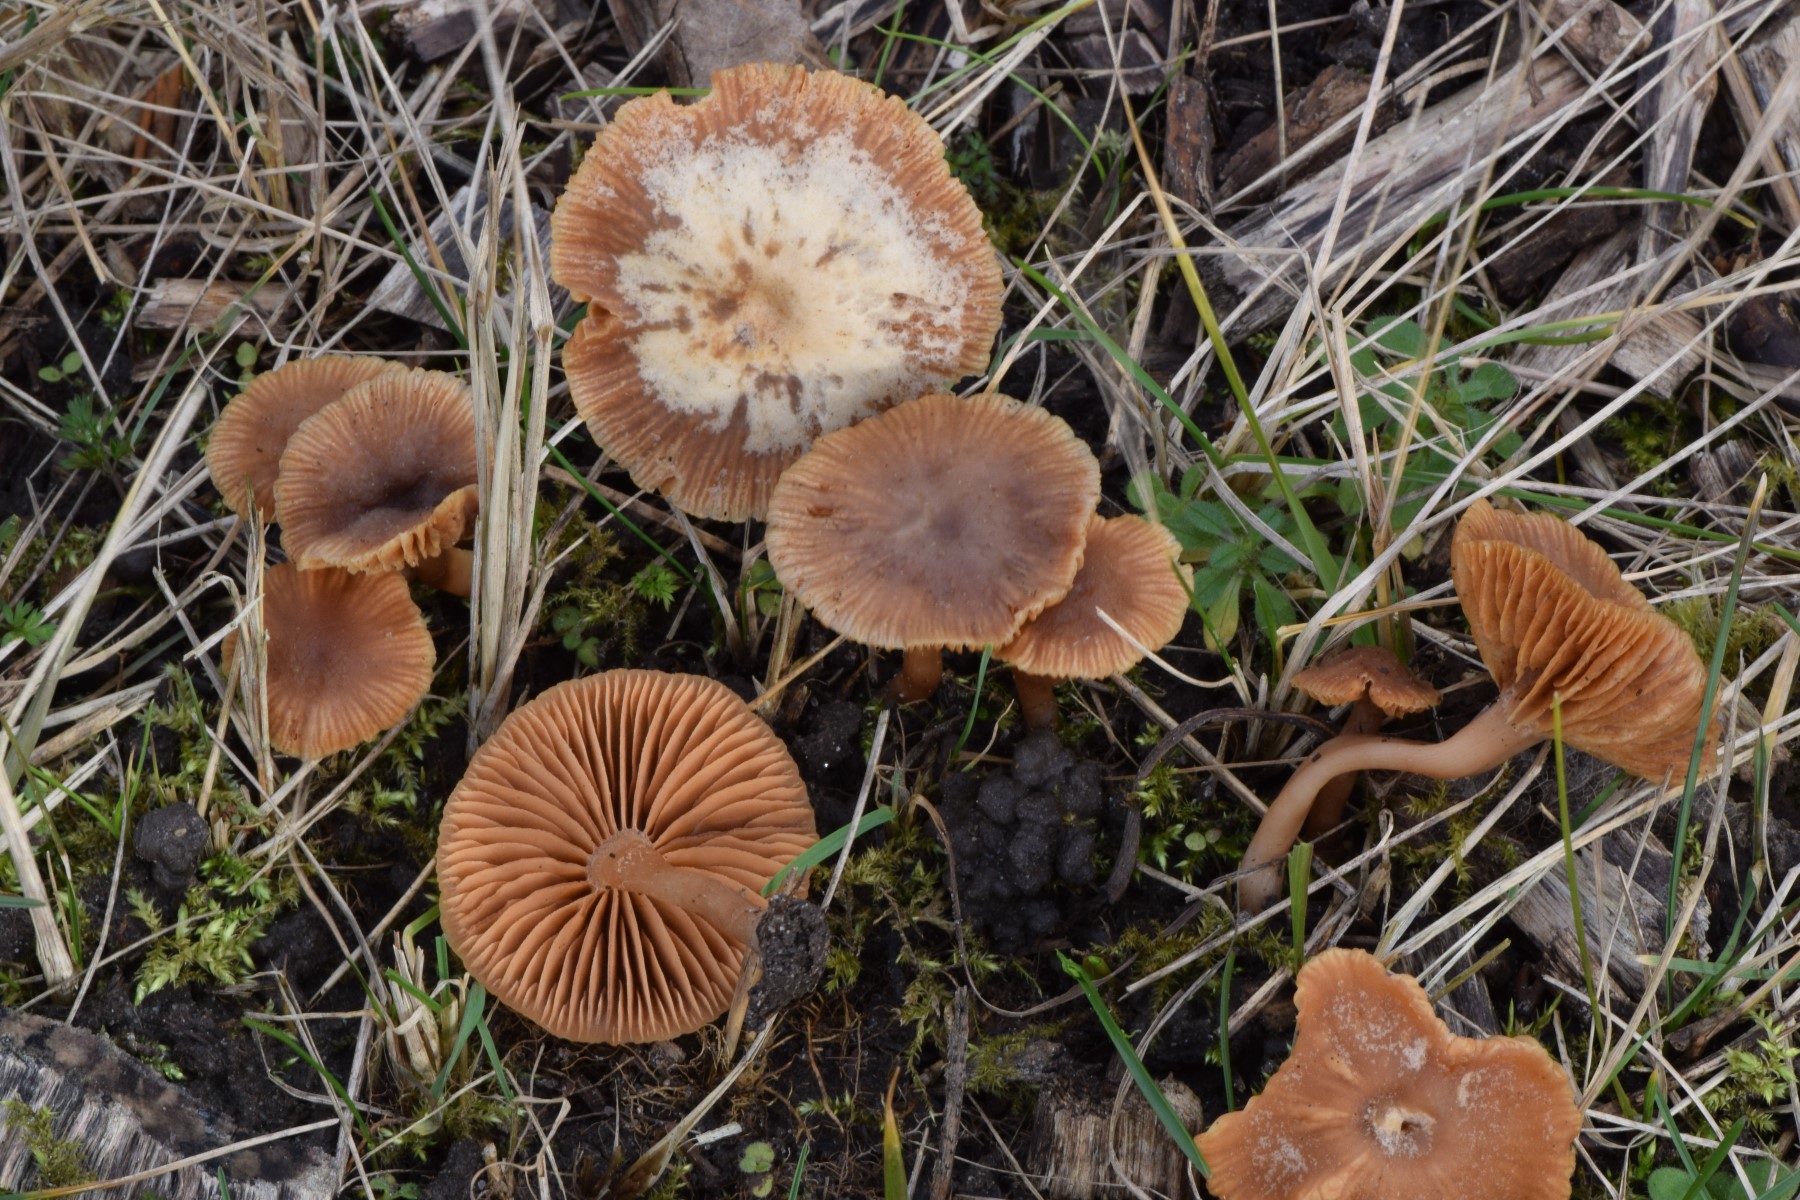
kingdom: Fungi
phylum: Basidiomycota
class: Agaricomycetes
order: Agaricales
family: Tubariaceae
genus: Tubaria
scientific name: Tubaria furfuracea
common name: kliddet fnughat
